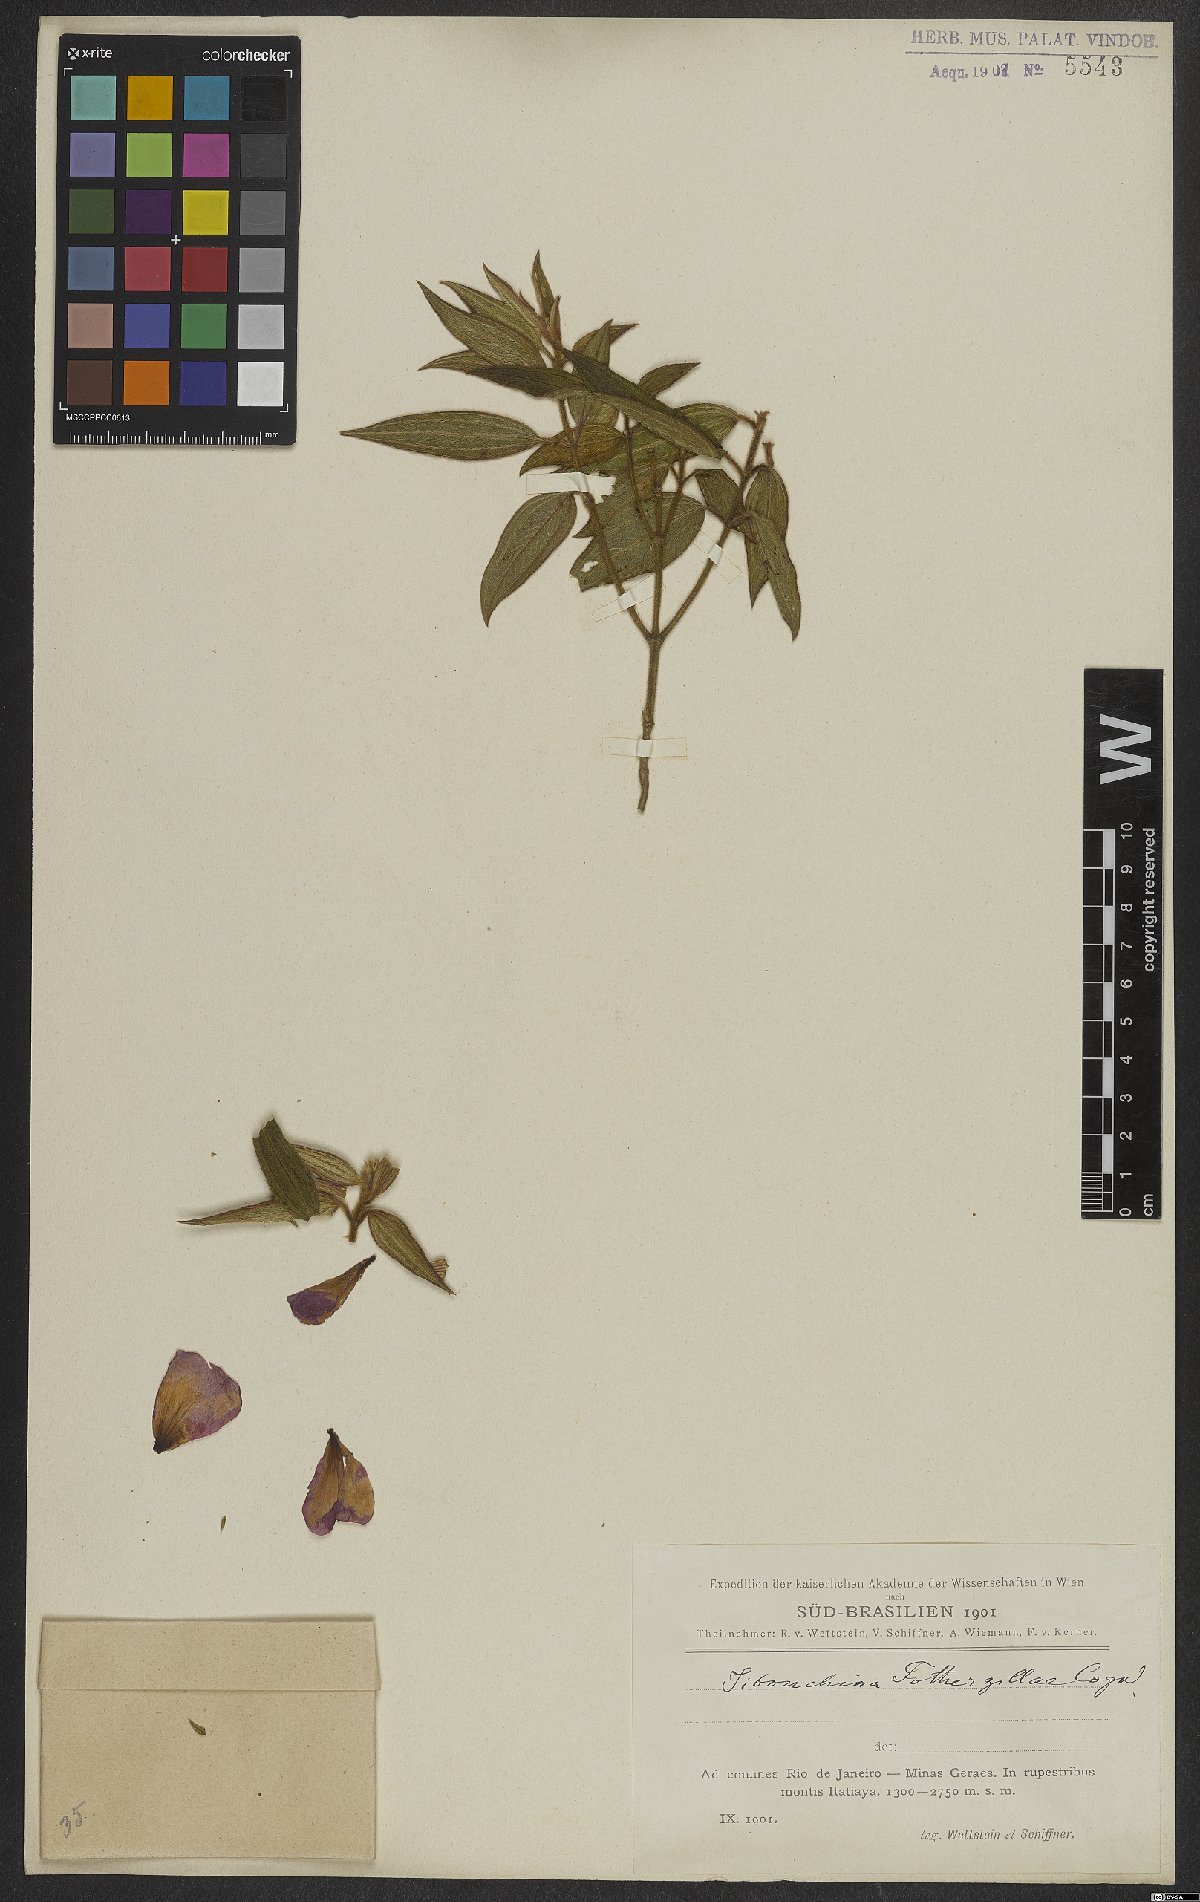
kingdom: Plantae
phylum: Tracheophyta
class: Magnoliopsida
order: Myrtales
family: Melastomataceae
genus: Pleroma
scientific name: Pleroma fothergillae
